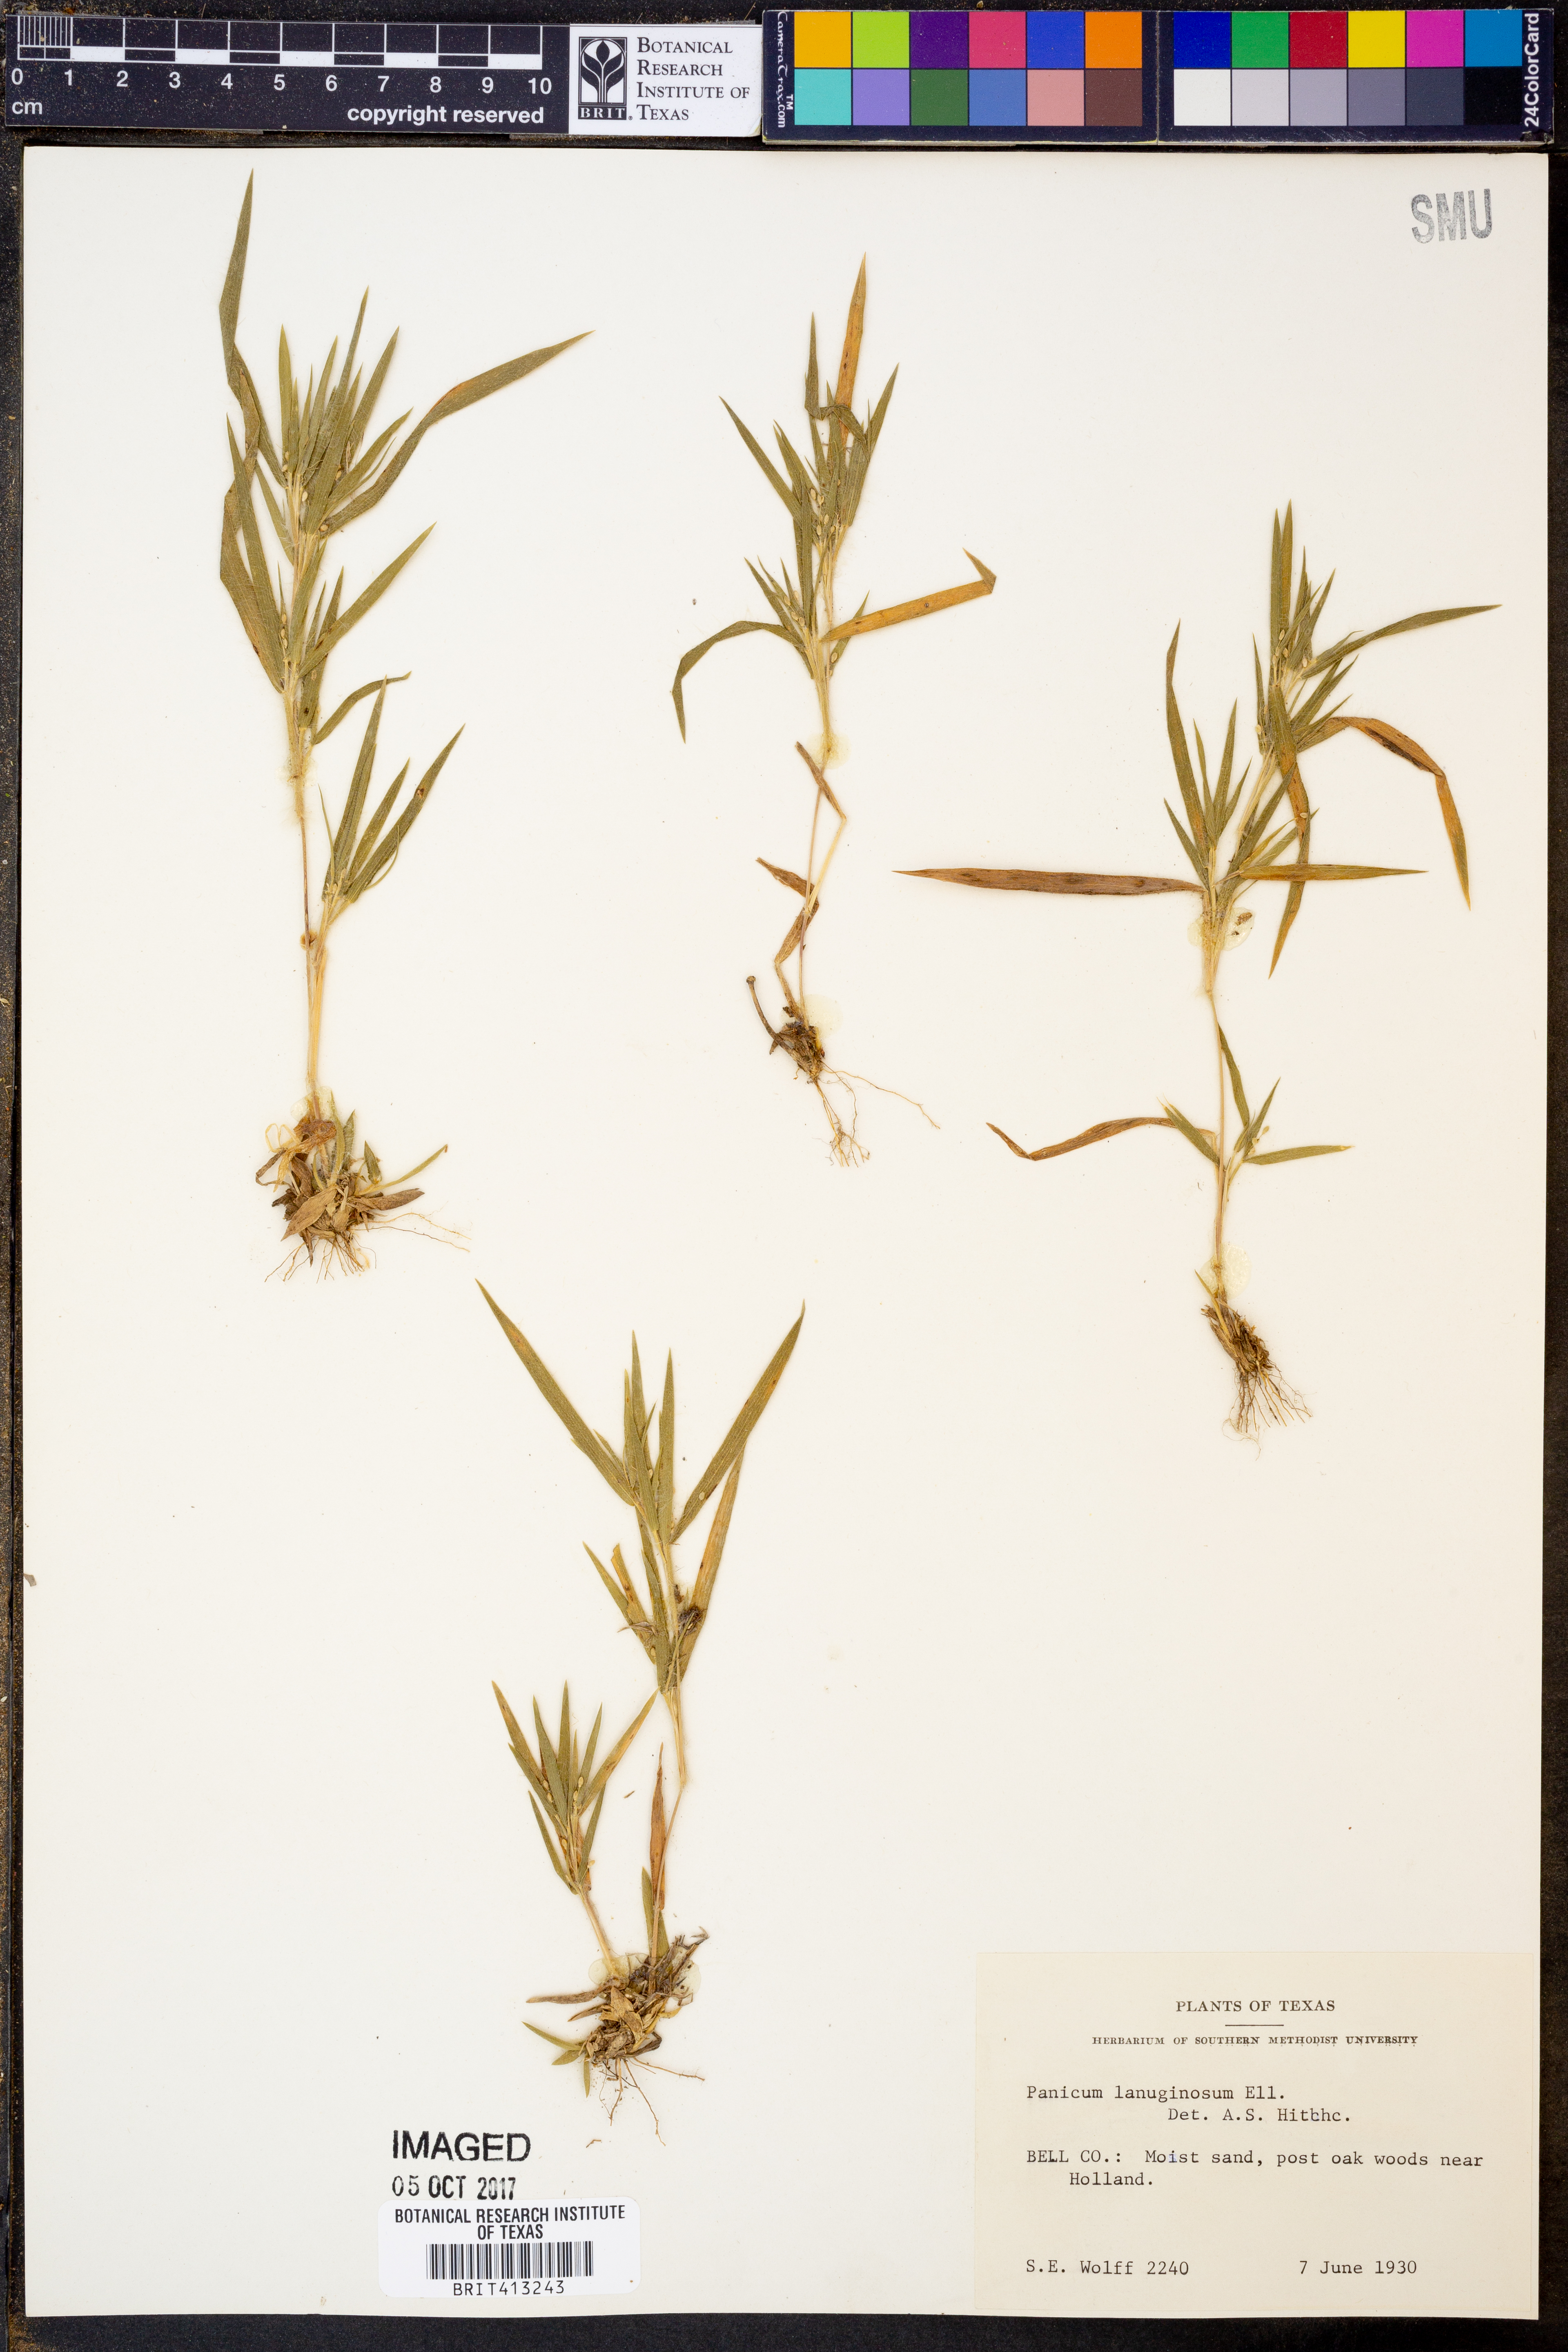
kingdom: Plantae
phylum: Tracheophyta
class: Liliopsida
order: Poales
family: Poaceae
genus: Dichanthelium
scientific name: Dichanthelium lanuginosum
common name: Woolly panicgrass
